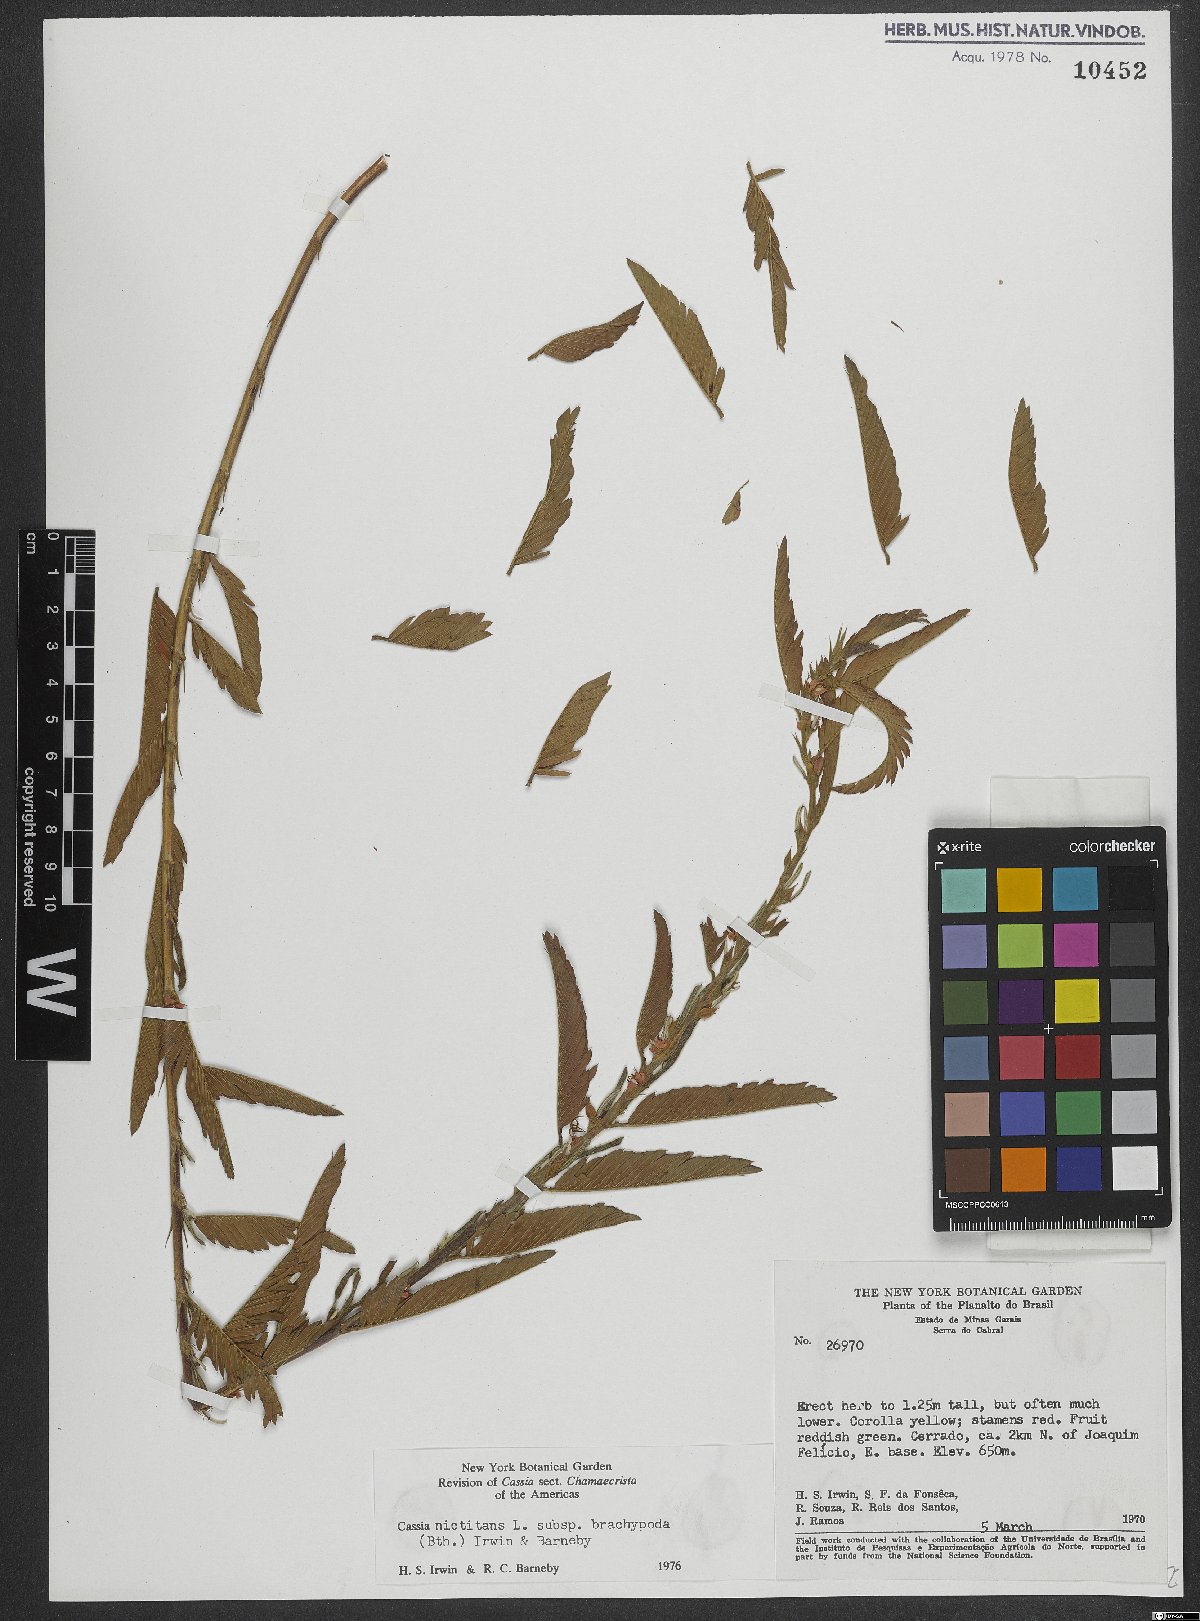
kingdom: Plantae
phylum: Tracheophyta
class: Magnoliopsida
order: Fabales
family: Fabaceae
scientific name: Fabaceae
